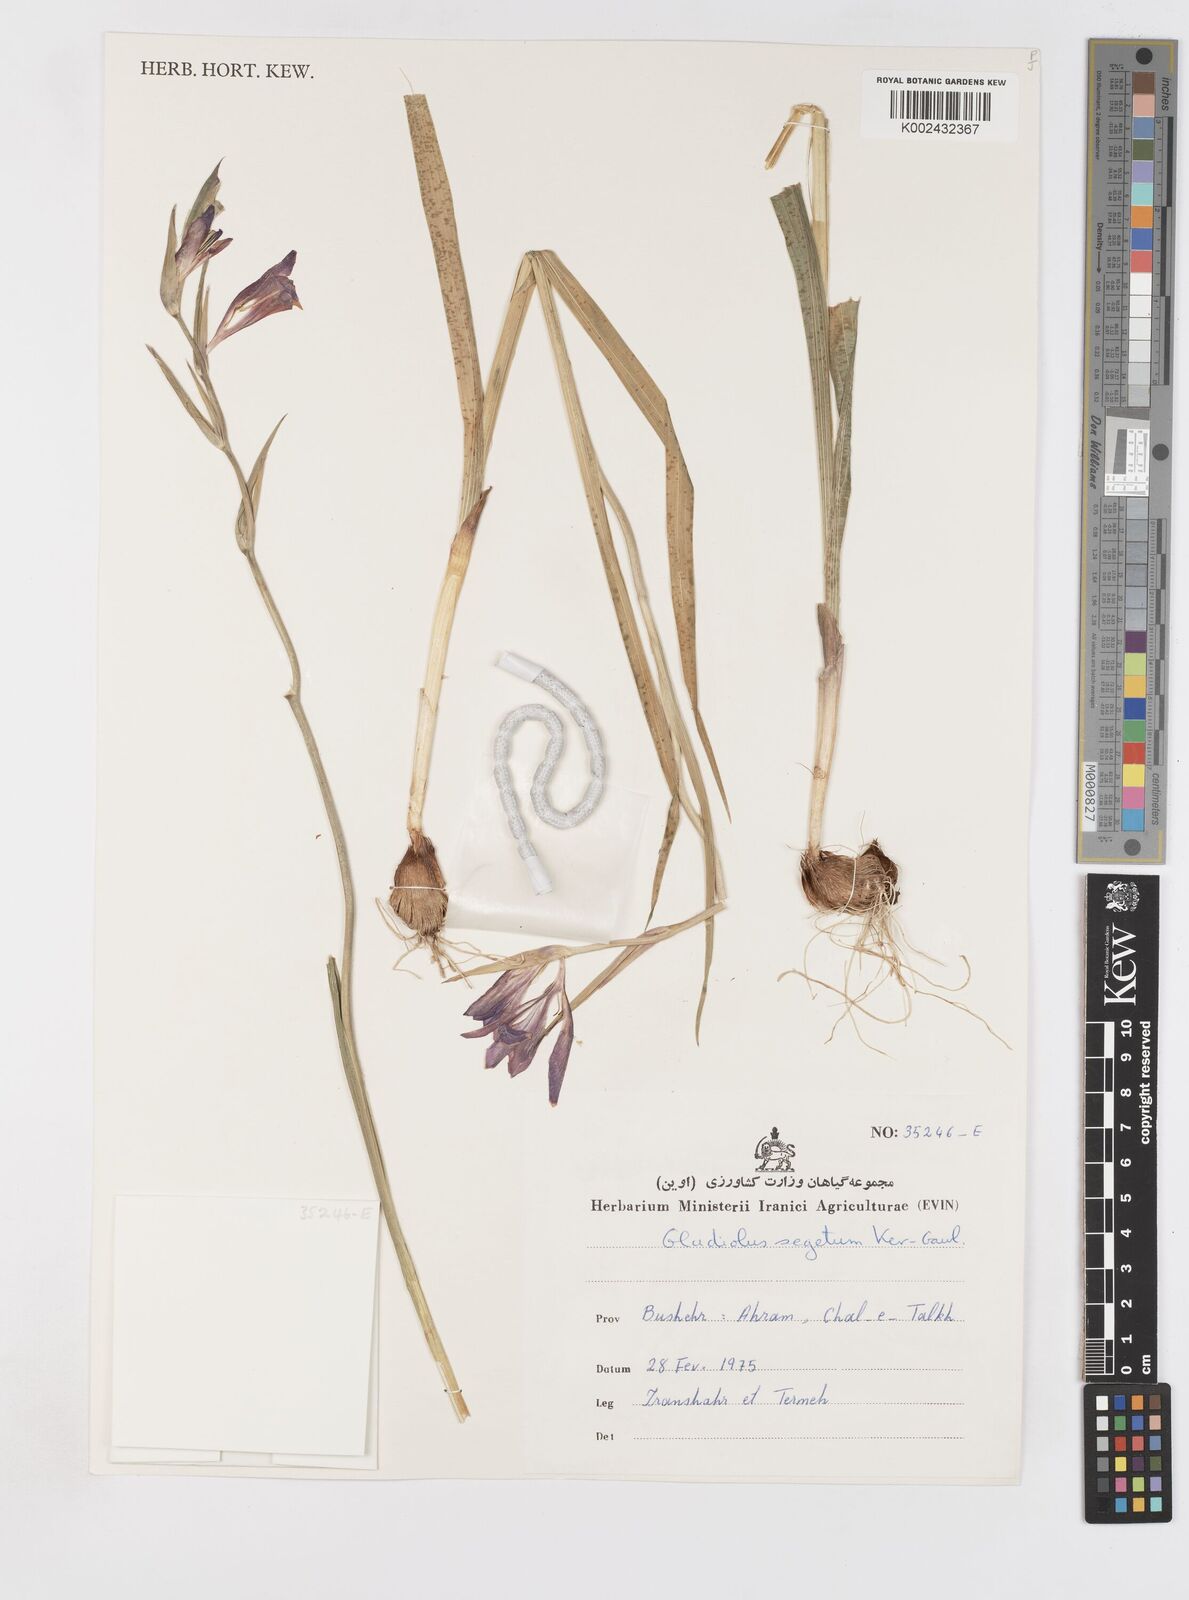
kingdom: Plantae
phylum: Tracheophyta
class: Liliopsida
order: Asparagales
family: Iridaceae
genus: Gladiolus
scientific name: Gladiolus italicus
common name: Field gladiolus
